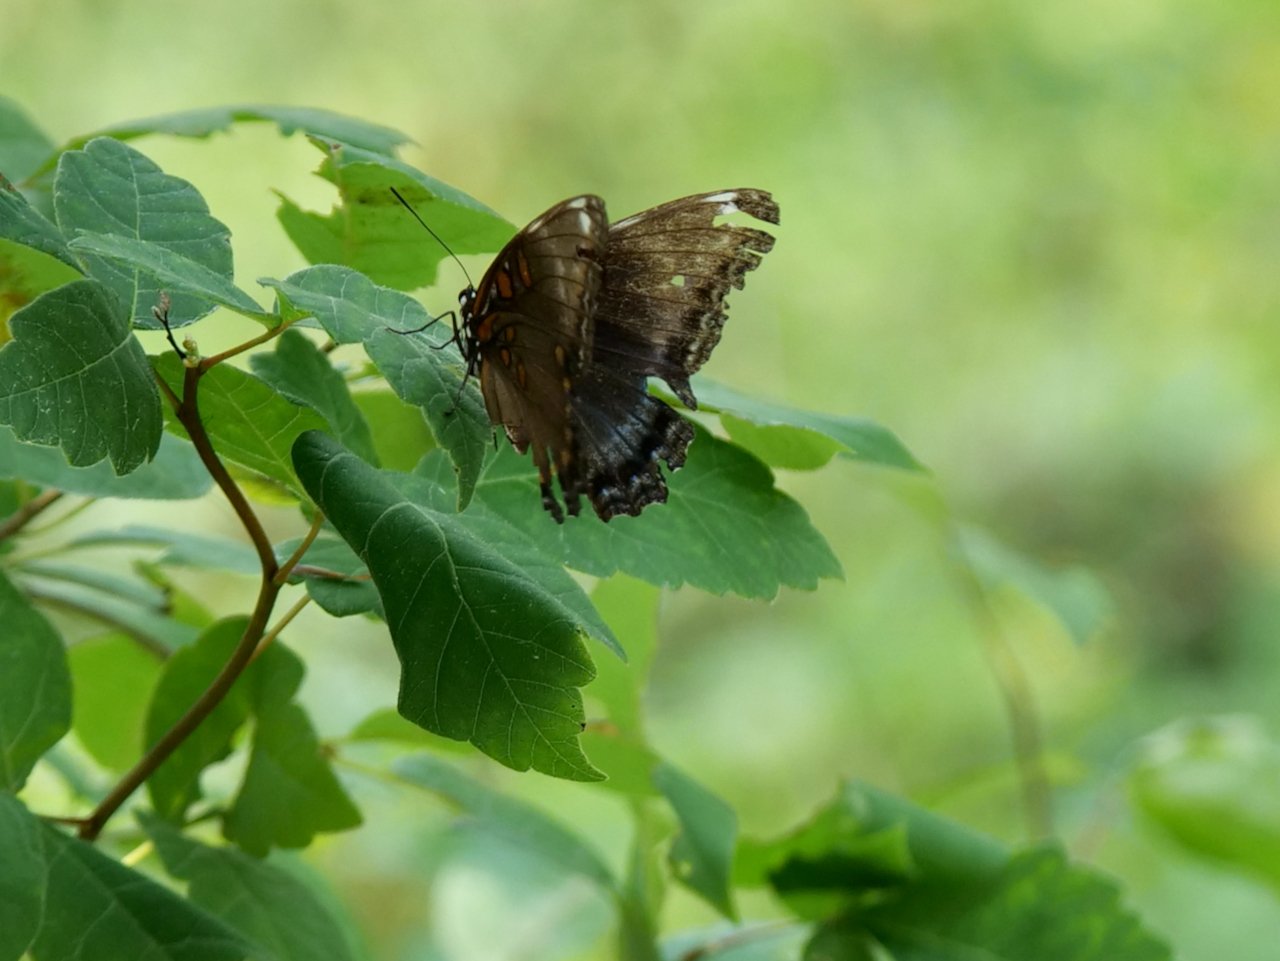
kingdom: Animalia
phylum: Arthropoda
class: Insecta
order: Lepidoptera
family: Nymphalidae
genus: Limenitis
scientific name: Limenitis arthemis
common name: Red-spotted Admiral
